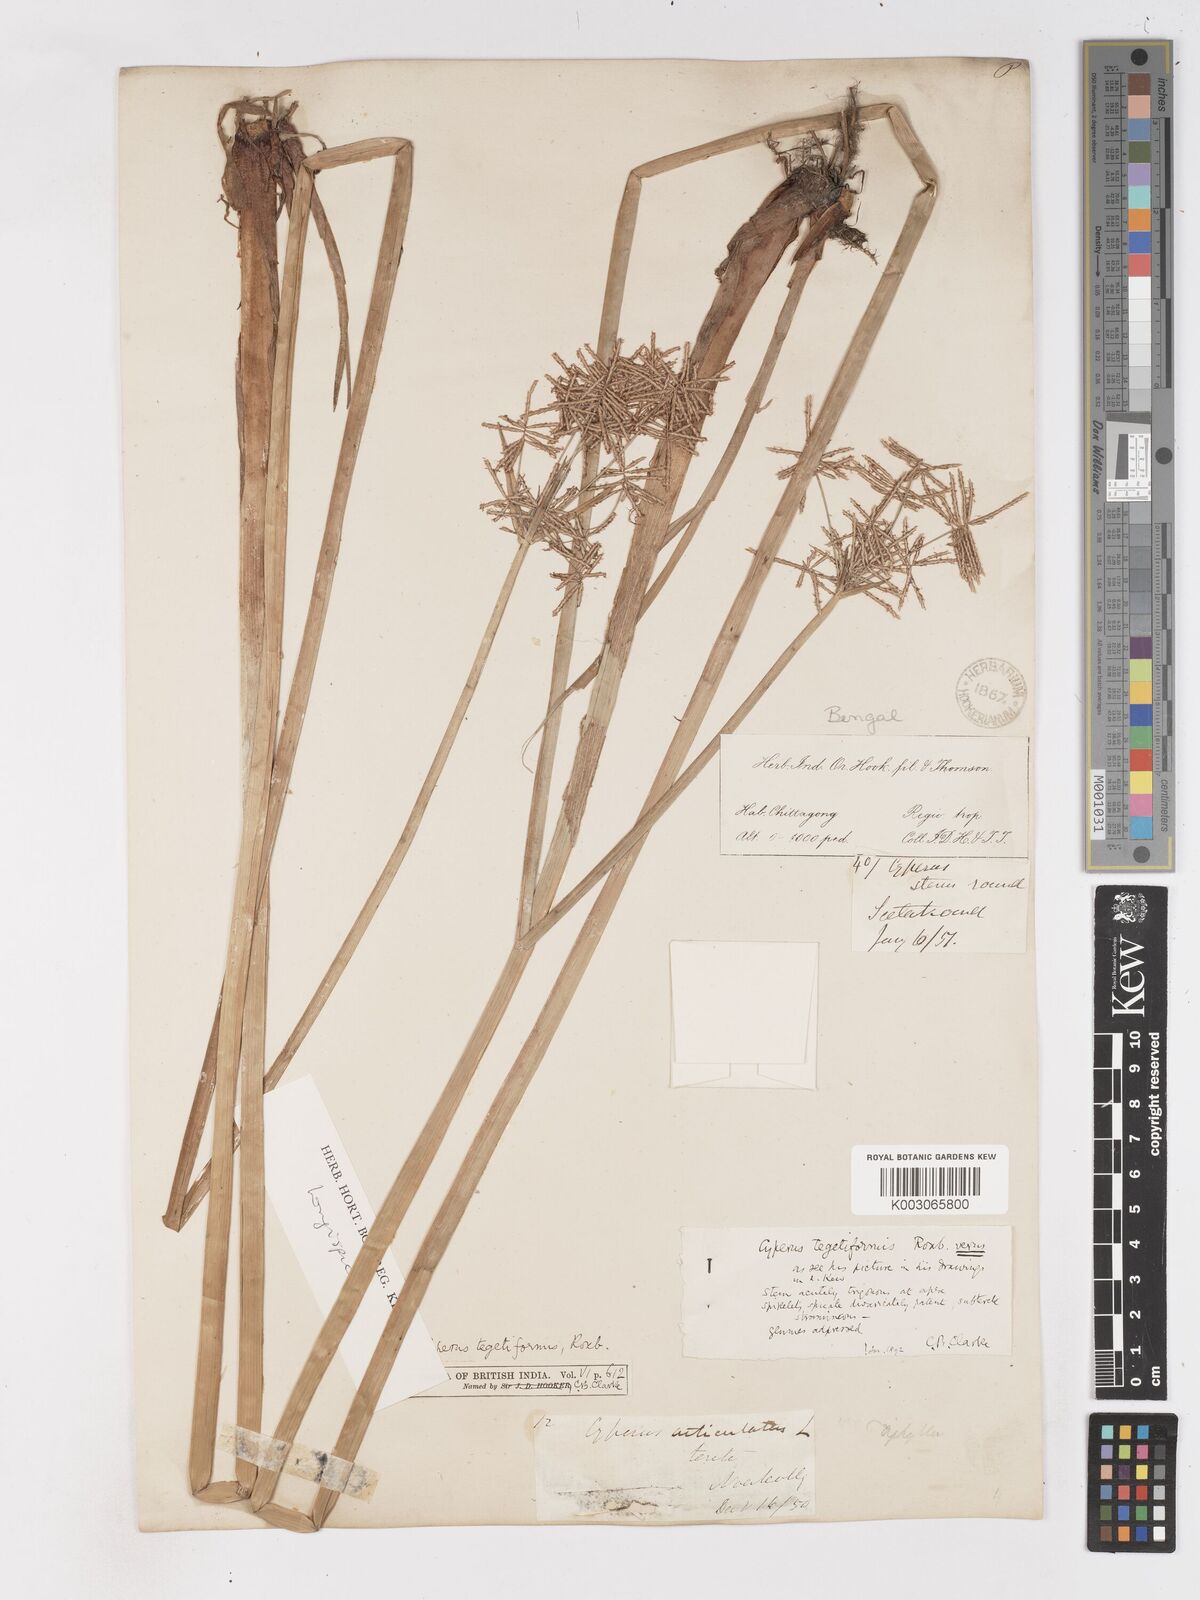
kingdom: Plantae
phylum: Tracheophyta
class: Liliopsida
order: Poales
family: Cyperaceae
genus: Cyperus
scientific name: Cyperus corymbosus
